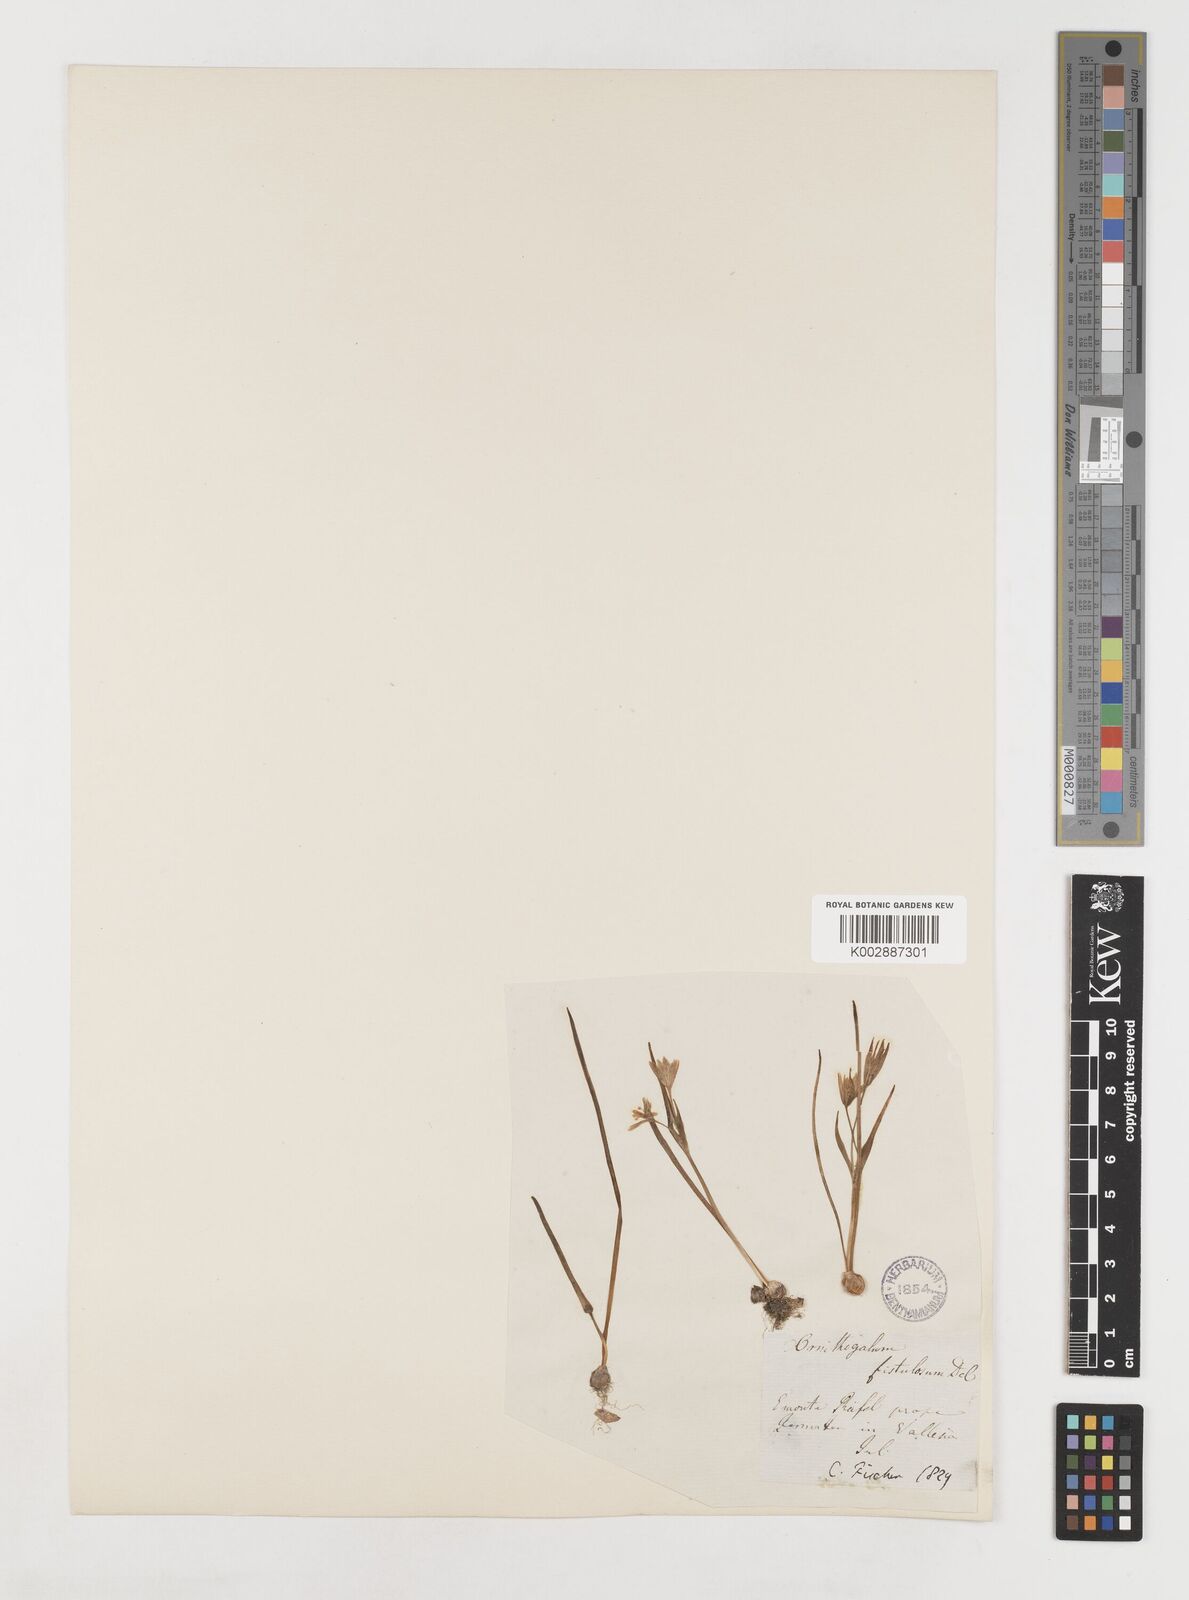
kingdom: Plantae
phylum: Tracheophyta
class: Liliopsida
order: Liliales
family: Liliaceae
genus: Gagea
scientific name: Gagea bohemica
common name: Early star-of-bethlehem
